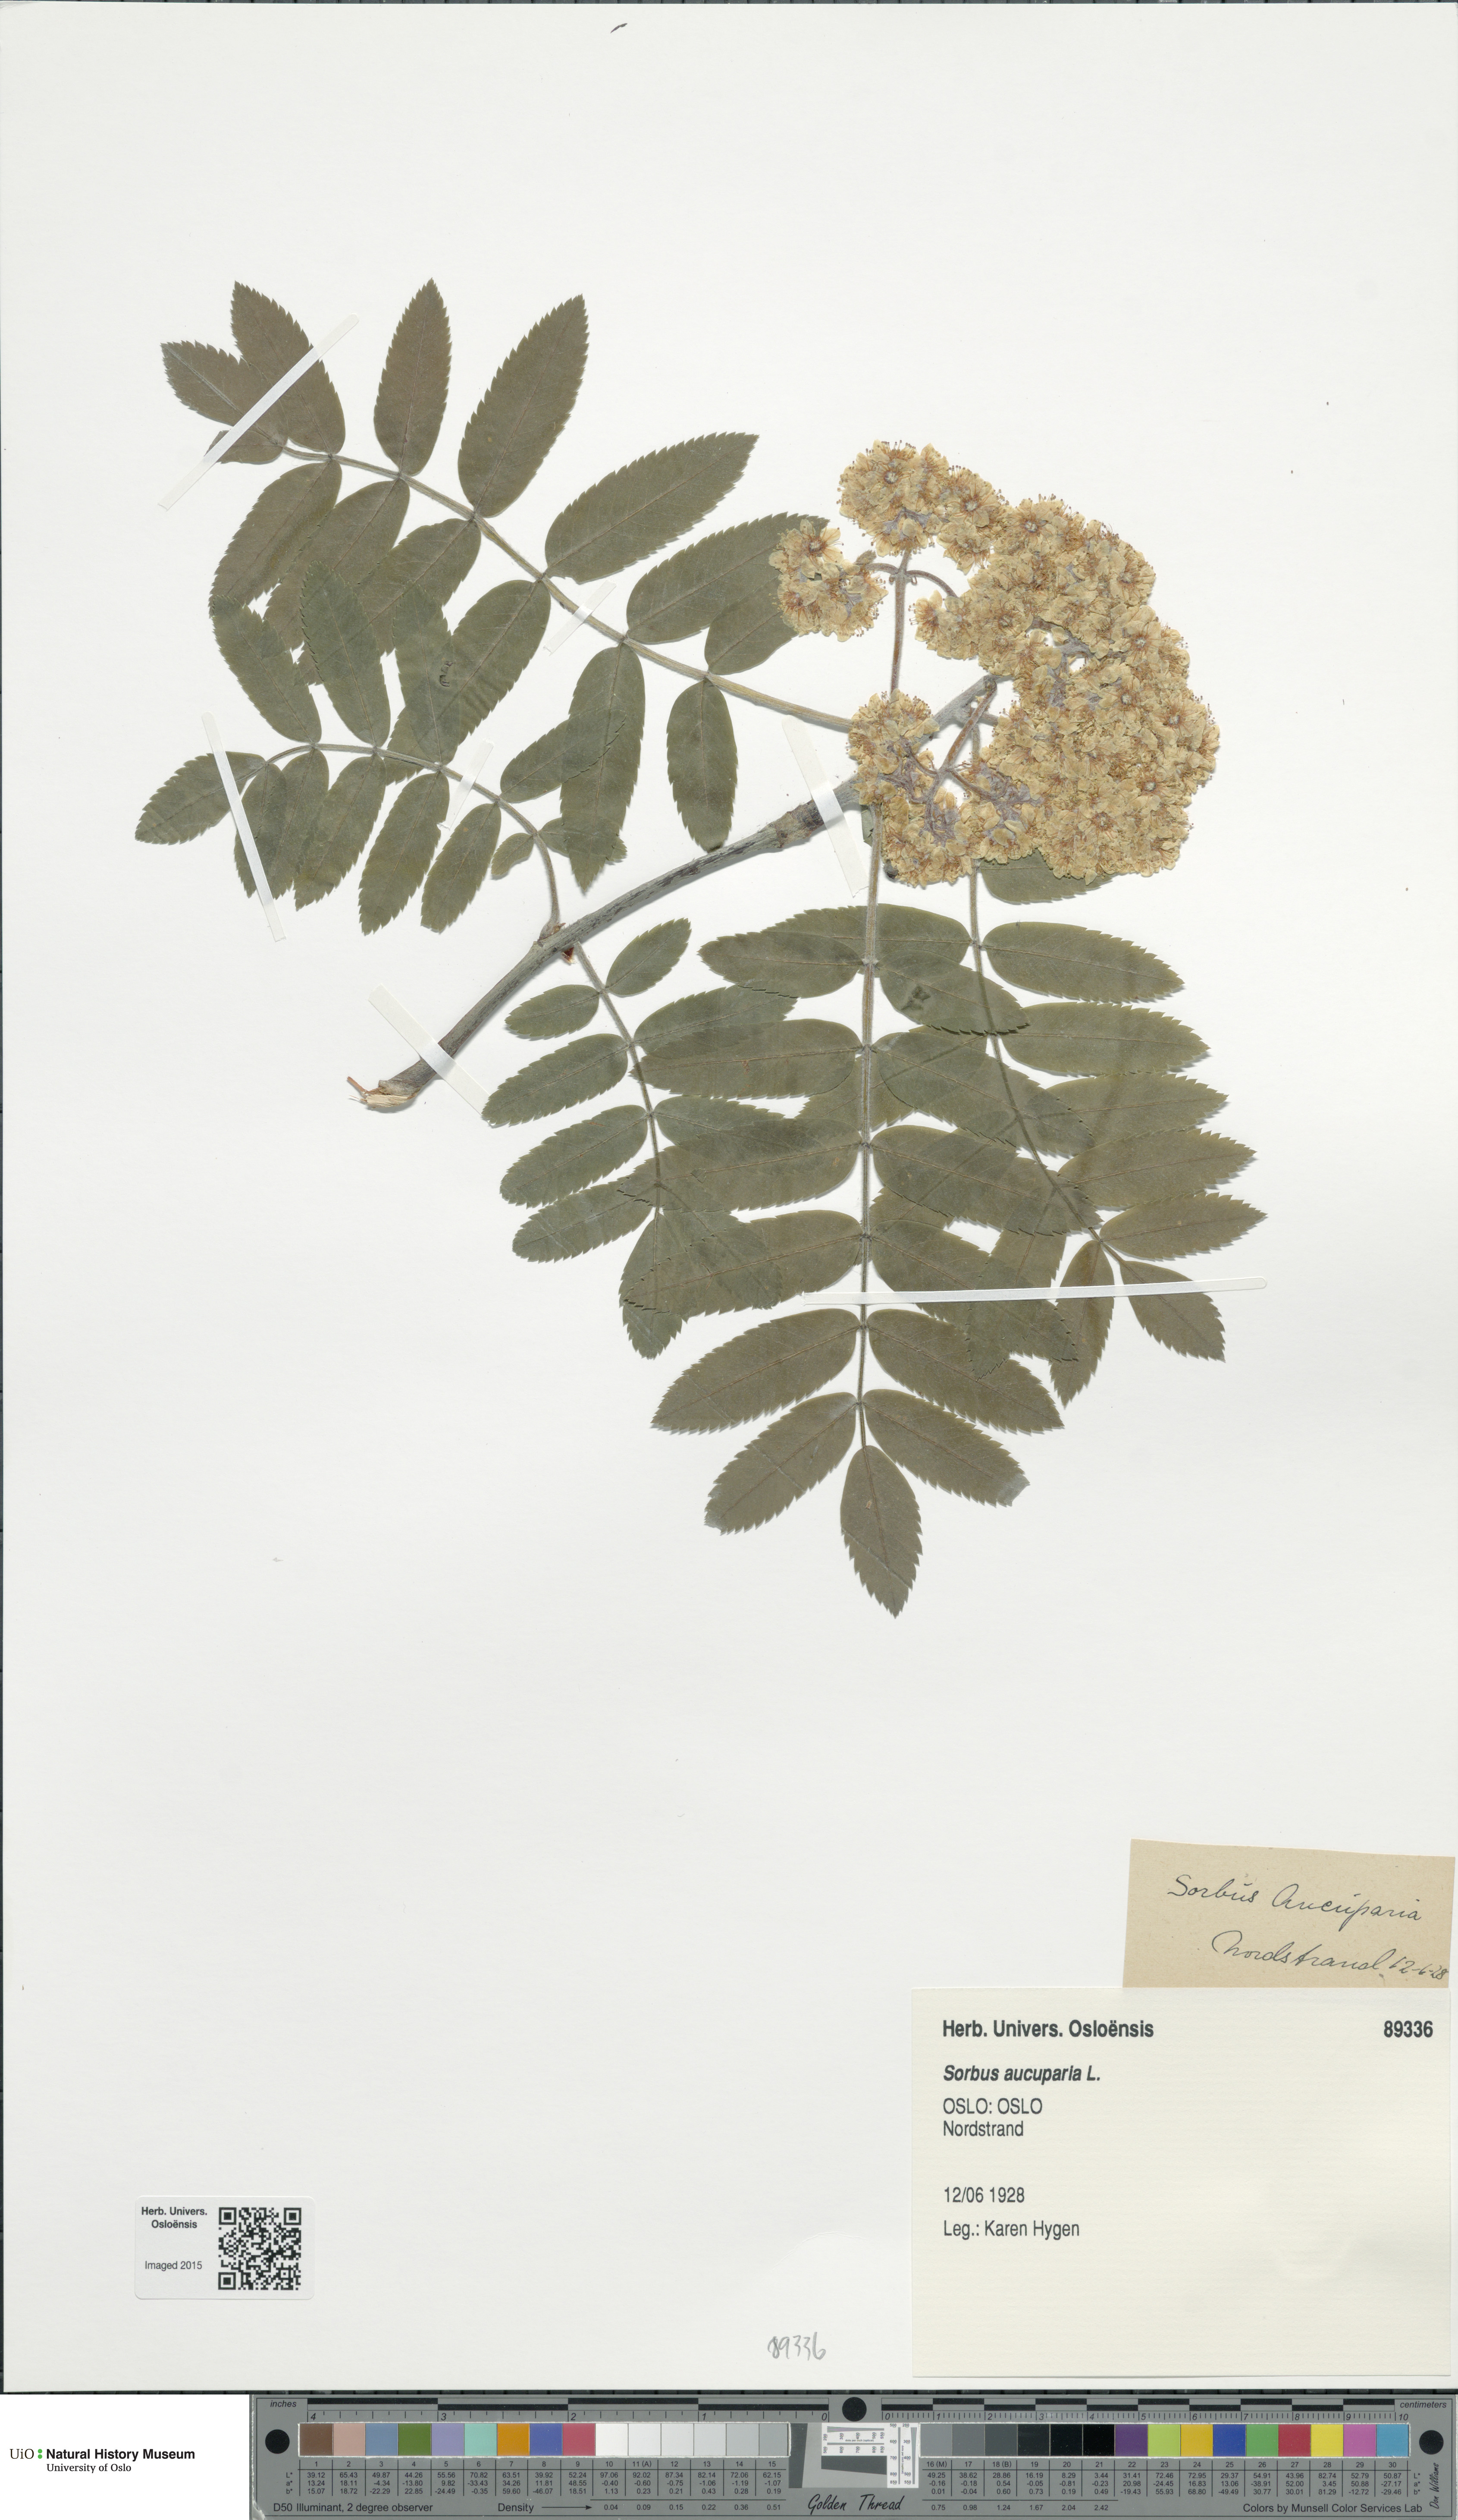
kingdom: Plantae
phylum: Tracheophyta
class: Magnoliopsida
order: Rosales
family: Rosaceae
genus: Sorbus
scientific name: Sorbus aucuparia
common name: Rowan
